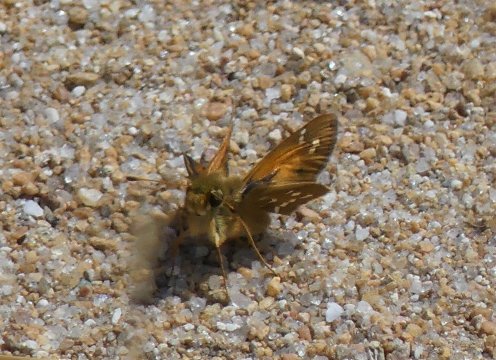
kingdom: Animalia
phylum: Arthropoda
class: Insecta
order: Lepidoptera
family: Hesperiidae
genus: Hesperia
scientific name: Hesperia comma
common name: Common Branded Skipper
